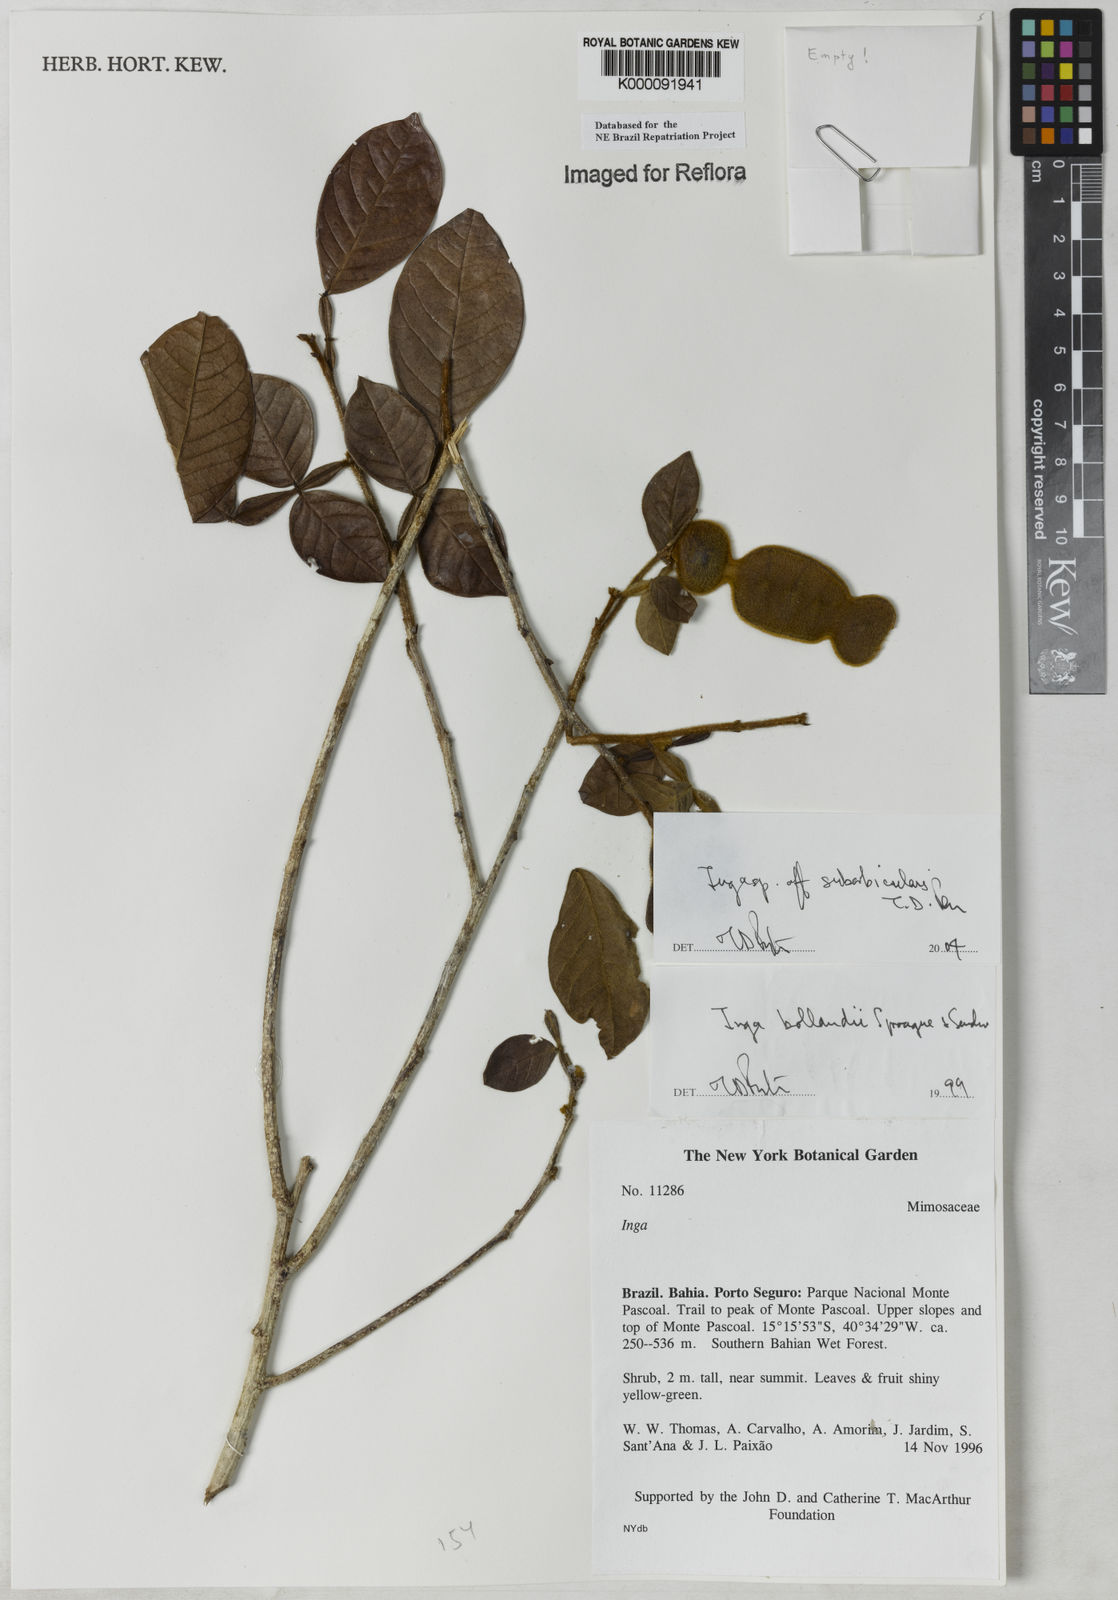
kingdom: Plantae
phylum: Tracheophyta
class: Magnoliopsida
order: Fabales
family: Fabaceae
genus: Inga
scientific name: Inga bollandii
